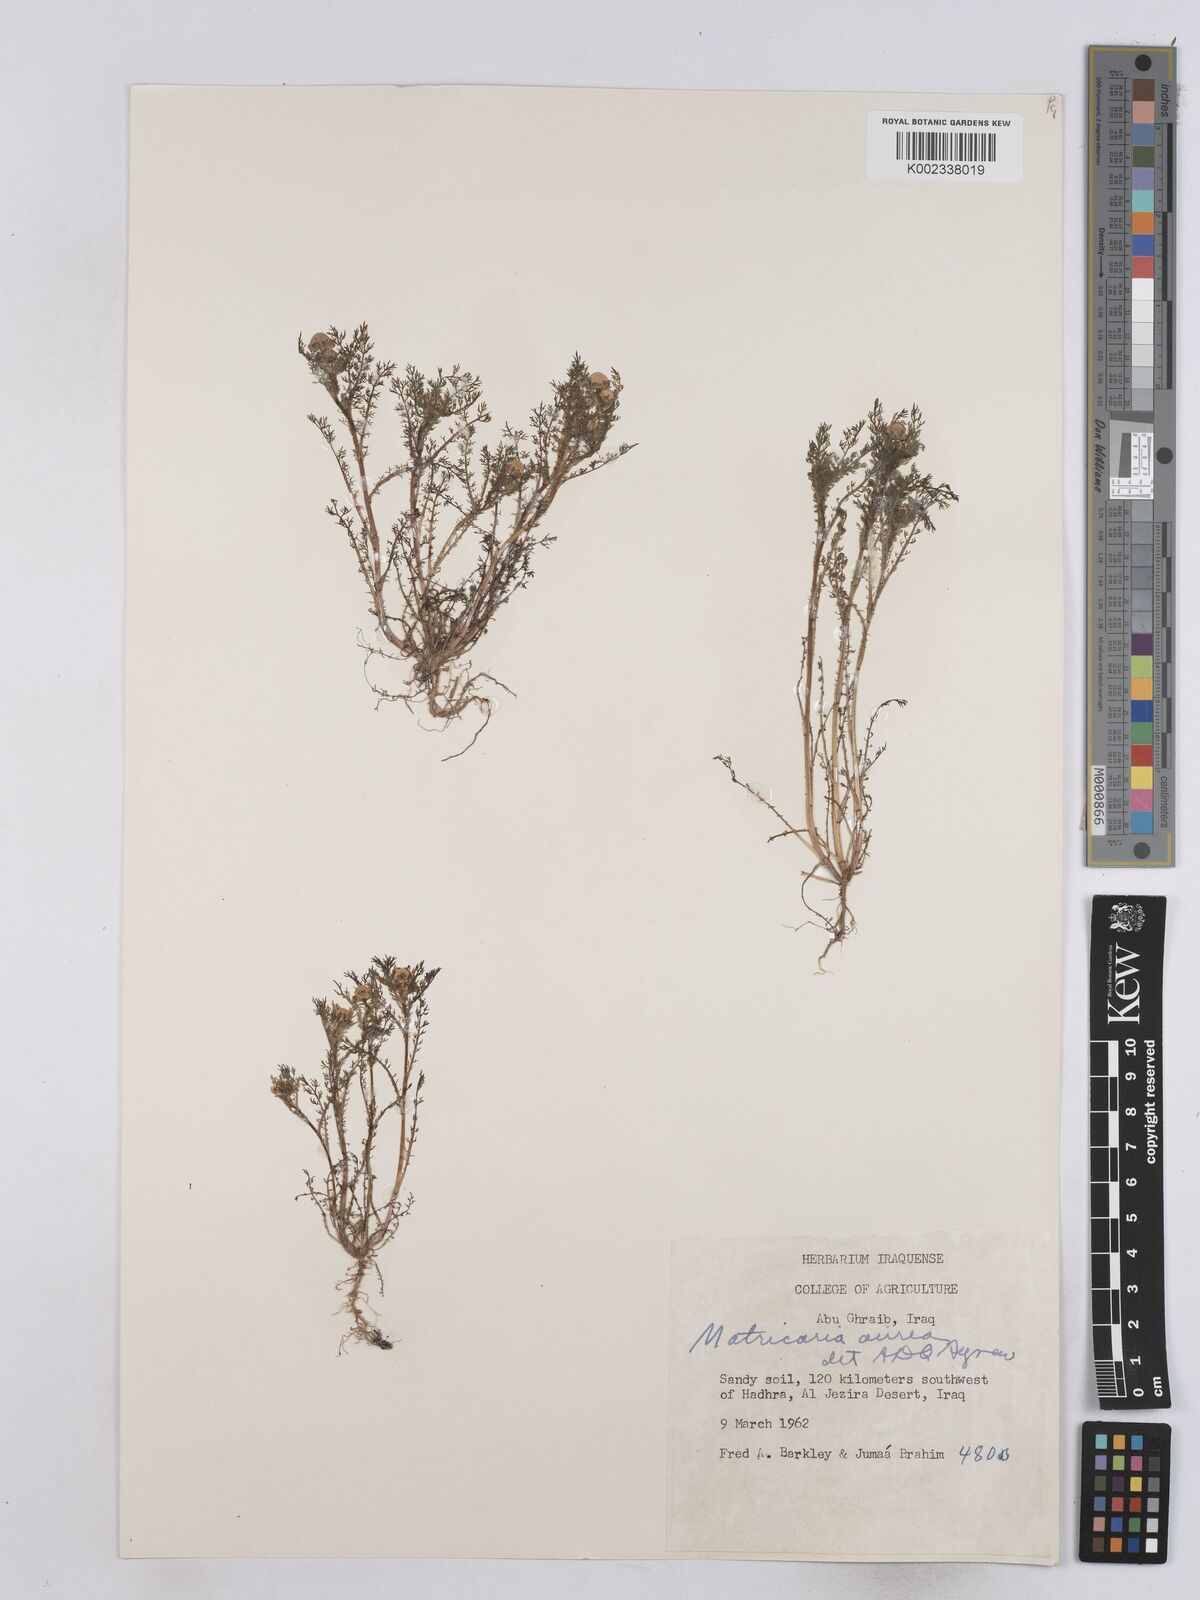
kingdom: Plantae
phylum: Tracheophyta
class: Magnoliopsida
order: Asterales
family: Asteraceae
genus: Matricaria
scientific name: Matricaria aurea
